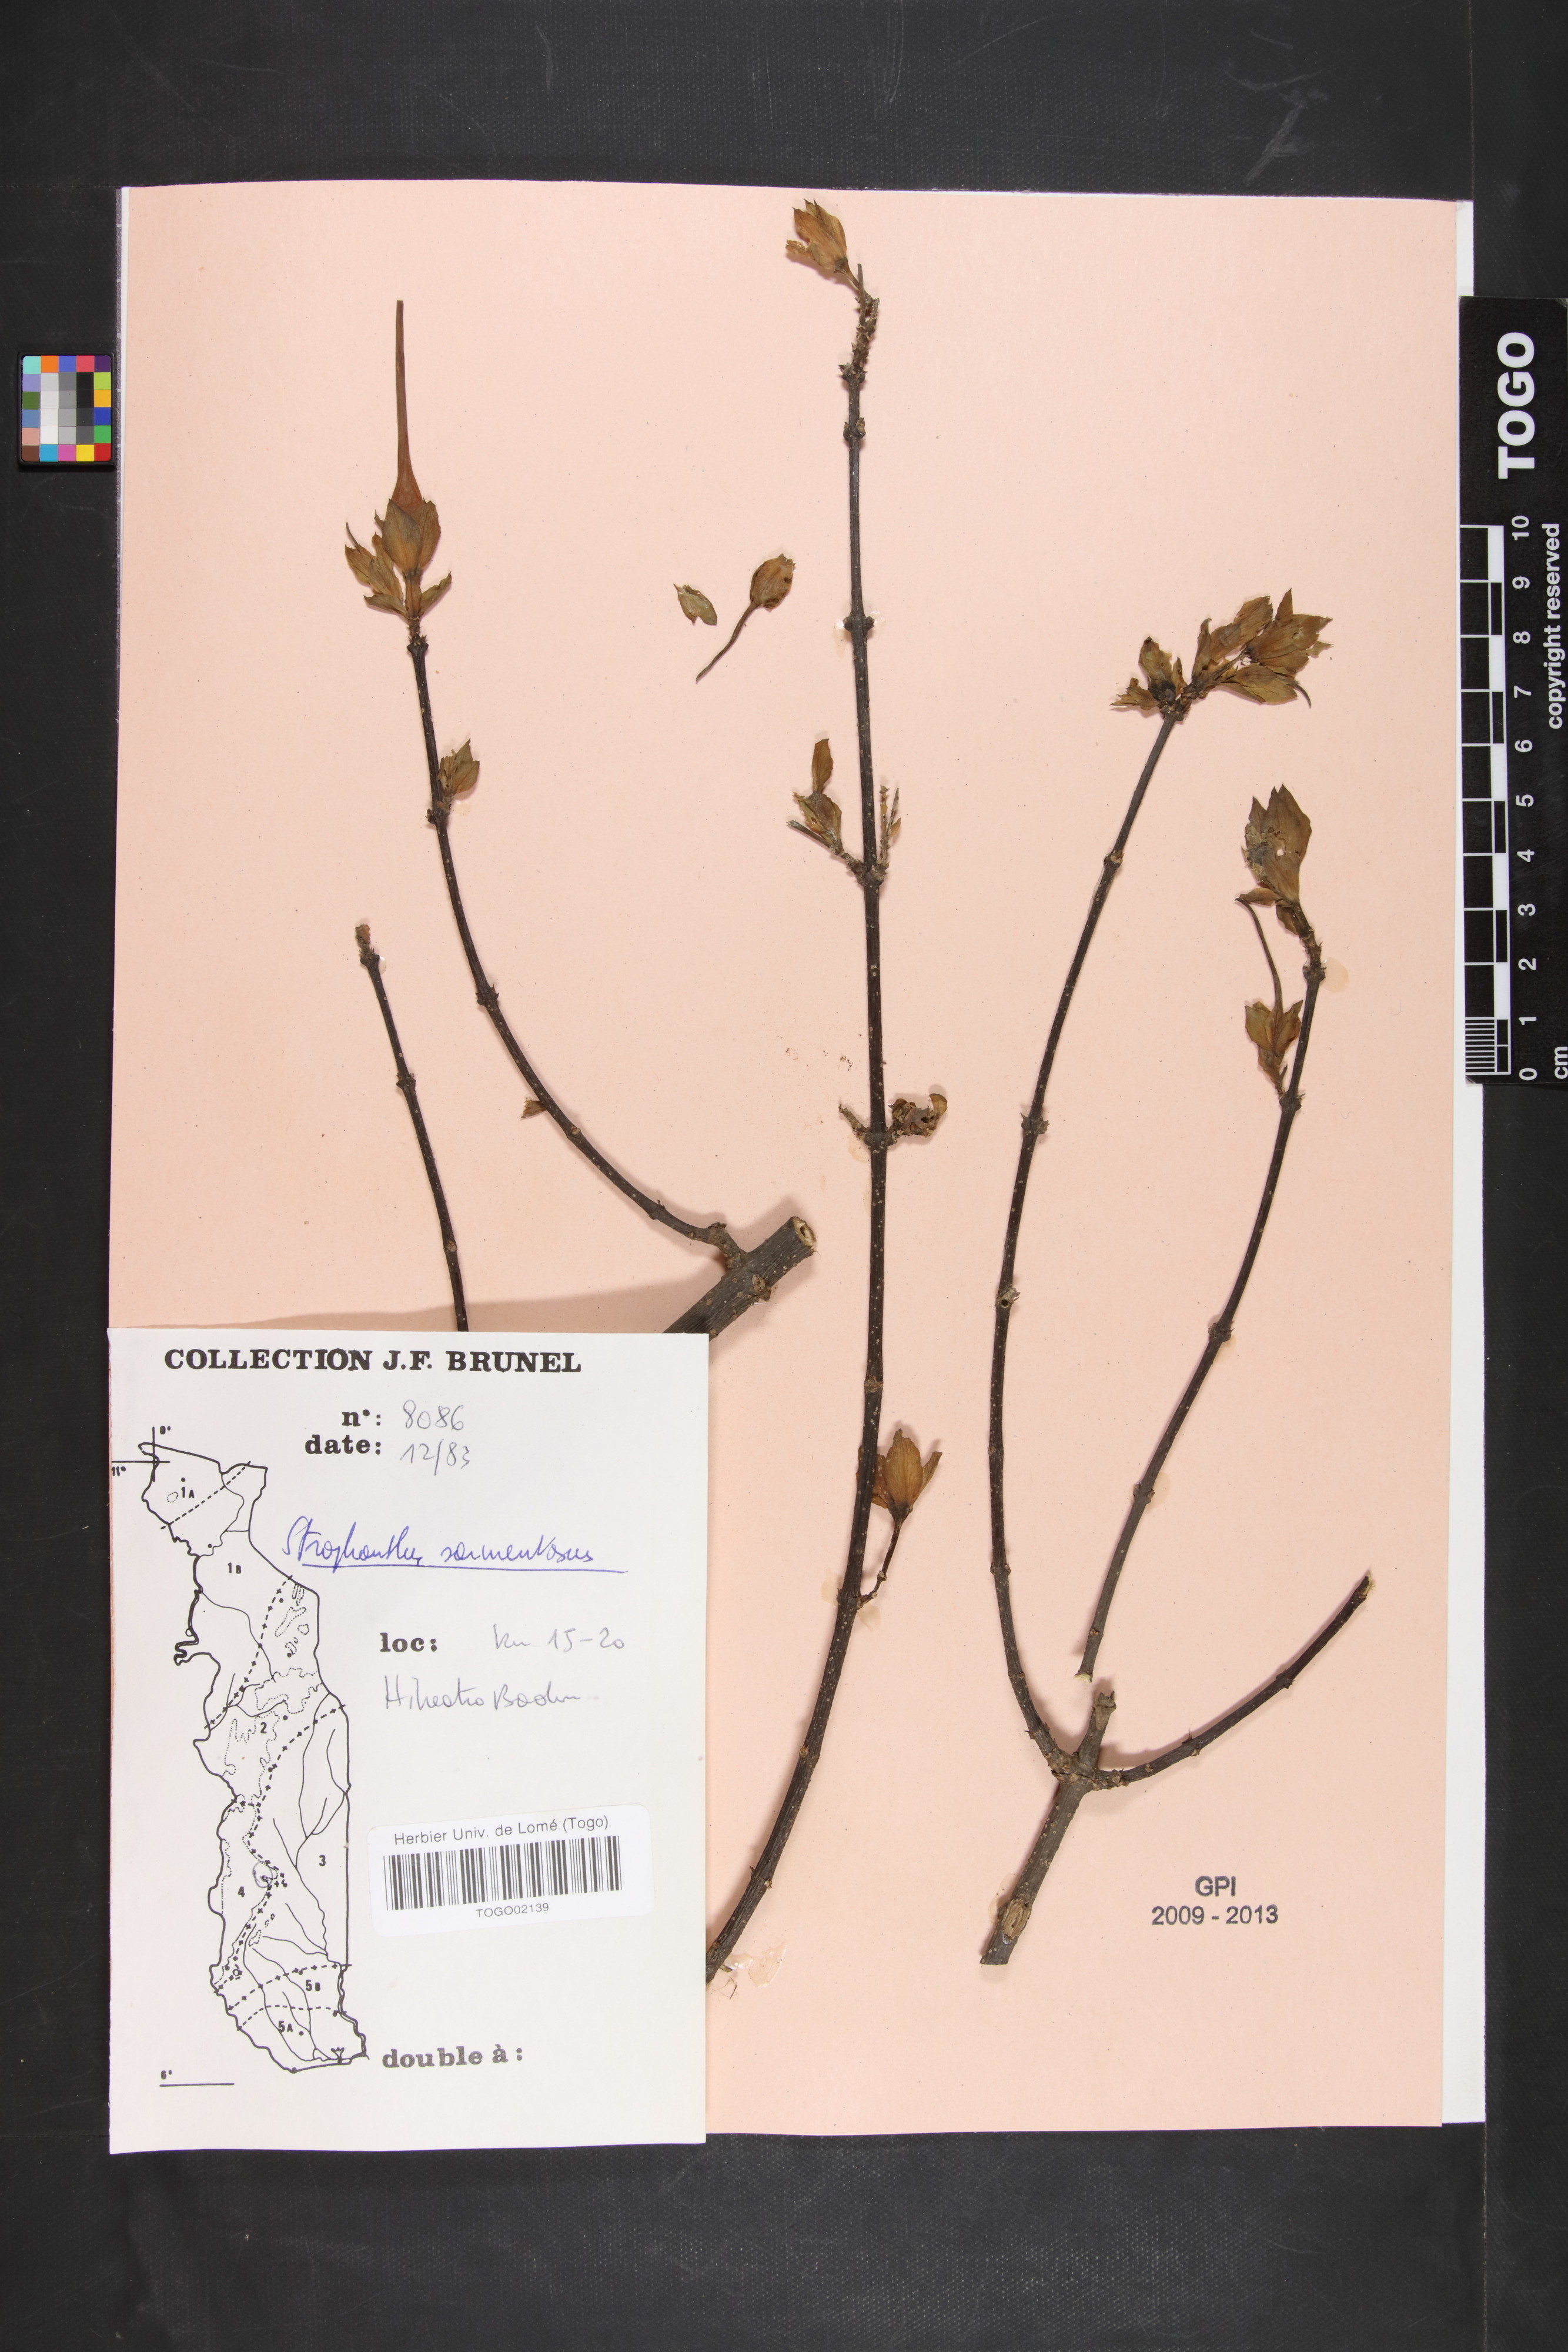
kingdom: Plantae
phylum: Tracheophyta
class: Magnoliopsida
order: Gentianales
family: Apocynaceae
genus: Strophanthus
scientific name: Strophanthus sarmentosus
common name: Poison arrowvine
